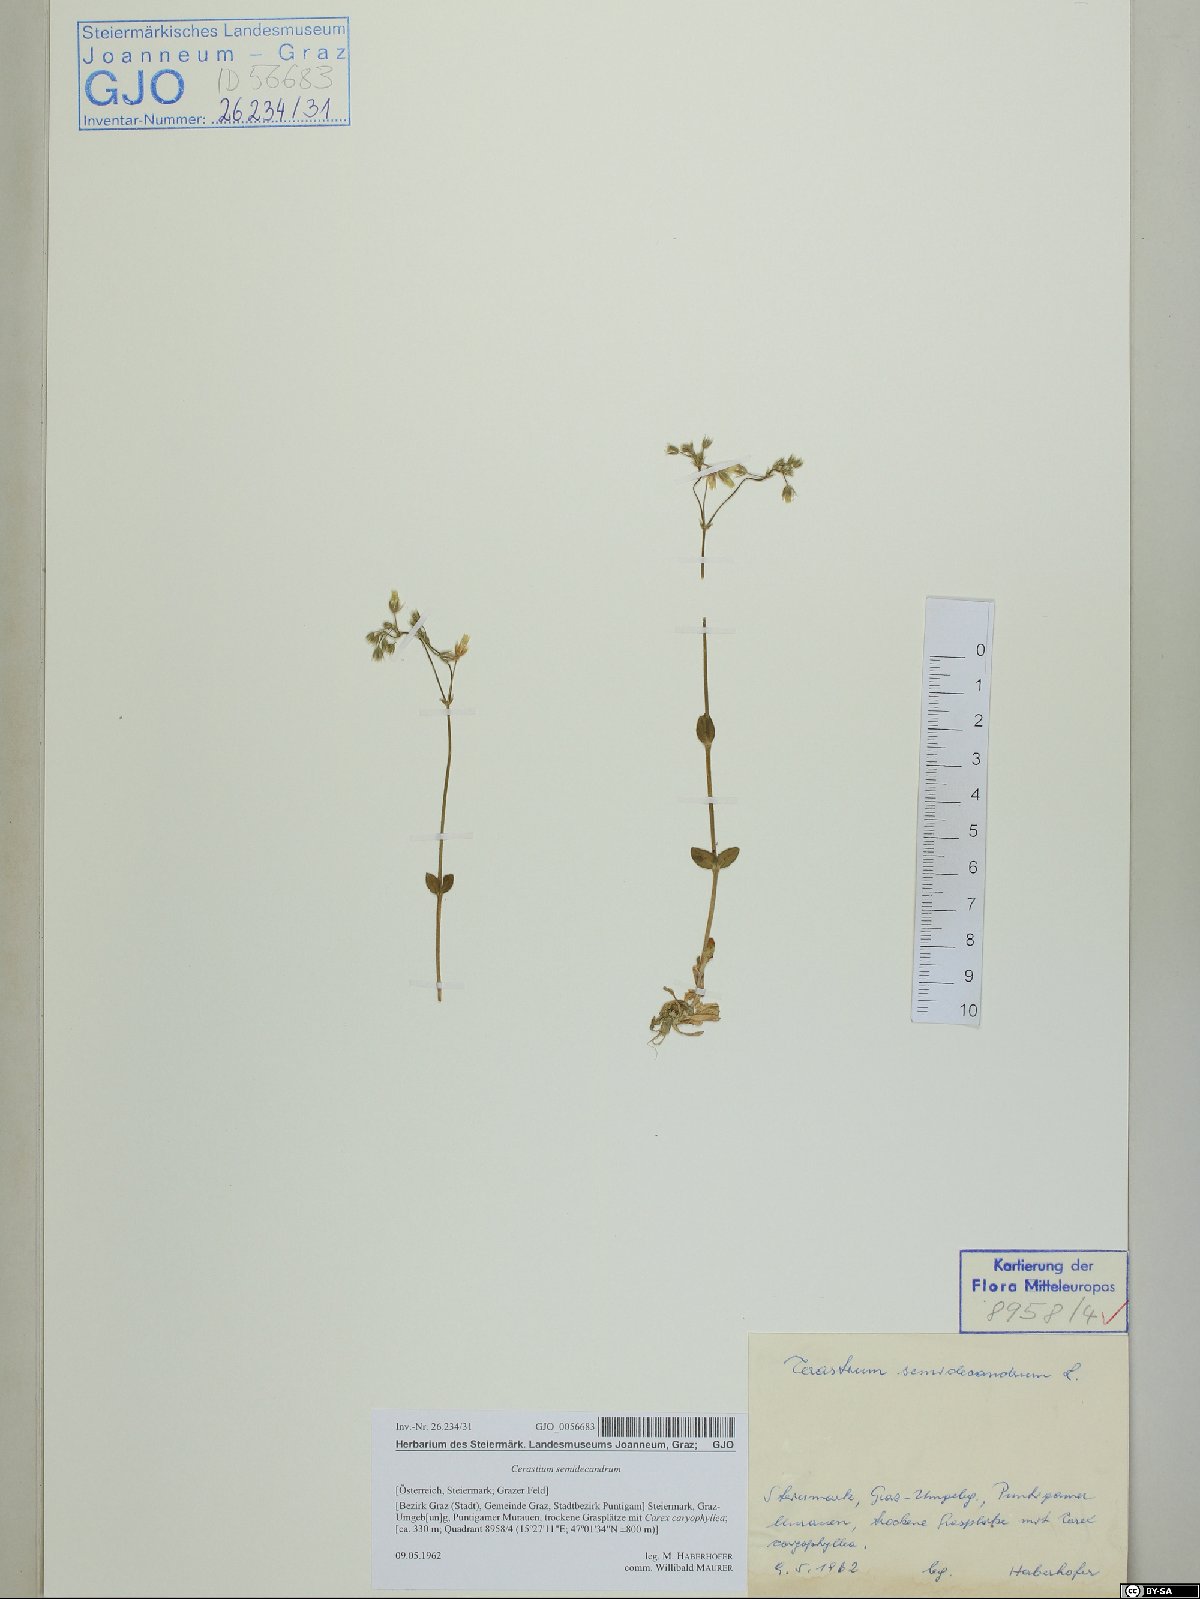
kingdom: Plantae
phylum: Tracheophyta
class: Magnoliopsida
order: Caryophyllales
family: Caryophyllaceae
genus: Cerastium
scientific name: Cerastium semidecandrum
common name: Little mouse-ear
